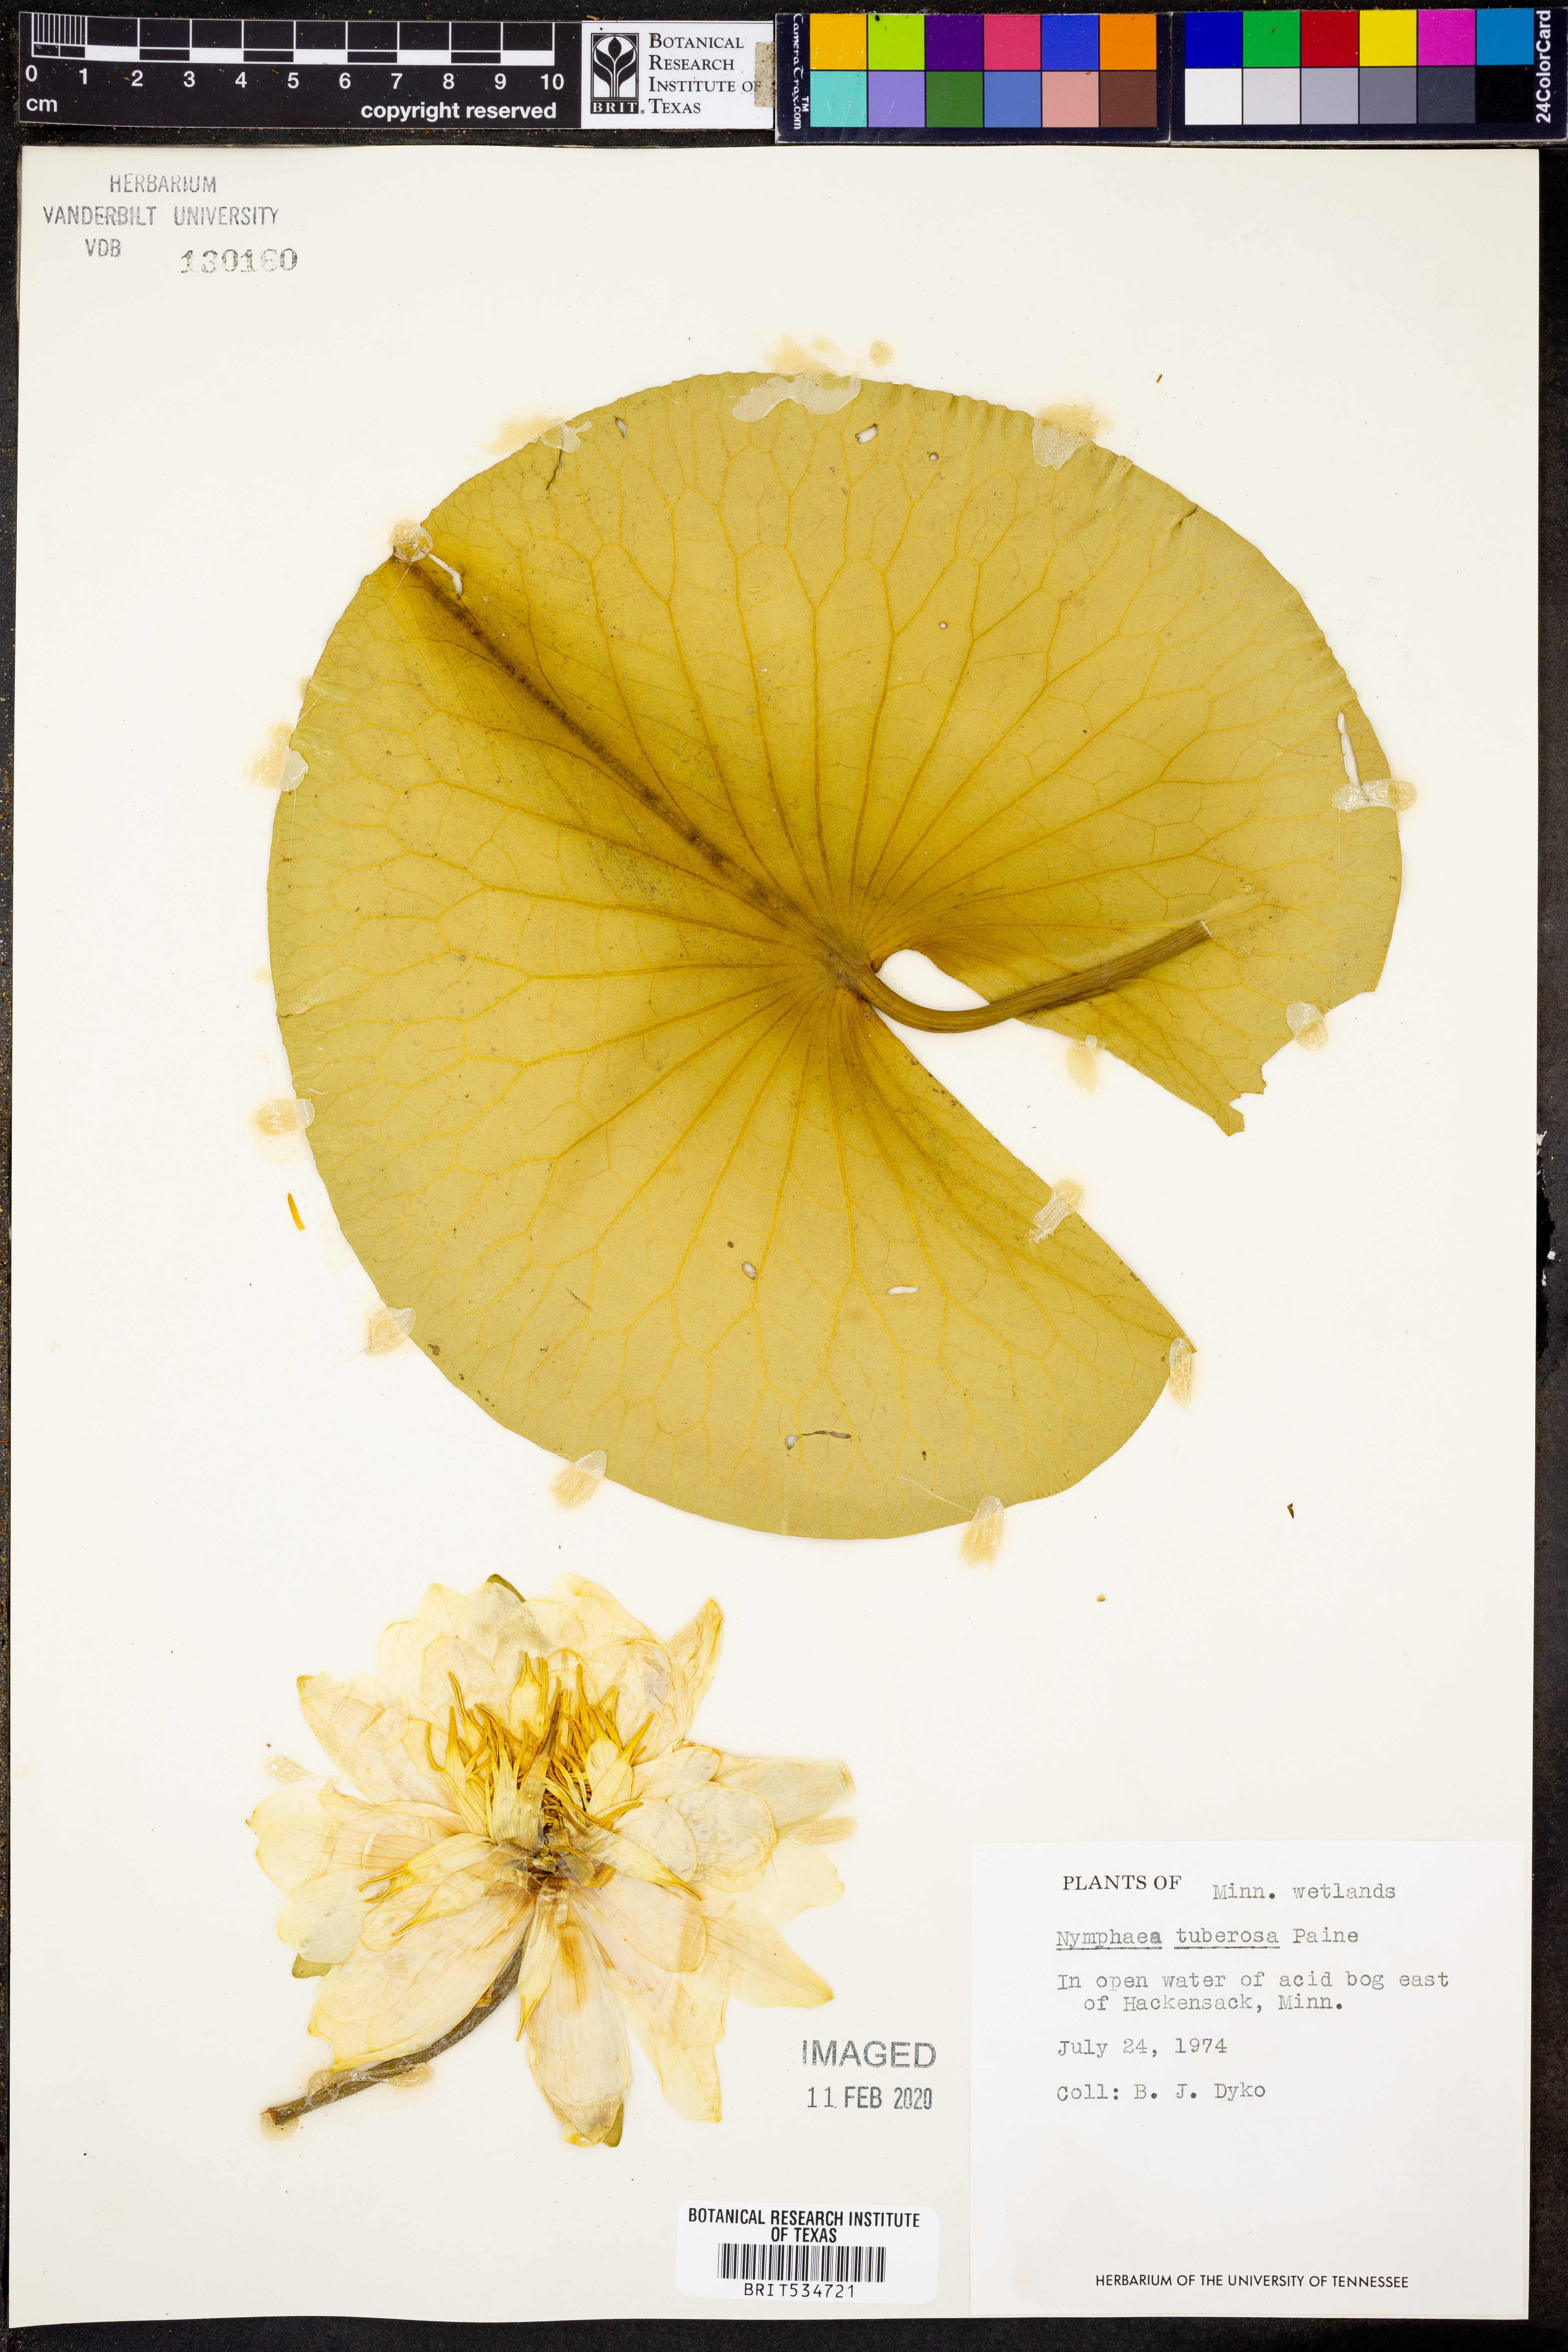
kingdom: Plantae
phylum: Tracheophyta
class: Magnoliopsida
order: Nymphaeales
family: Nymphaeaceae
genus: Nymphaea
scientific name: Nymphaea odorata
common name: Fragrant water-lily
